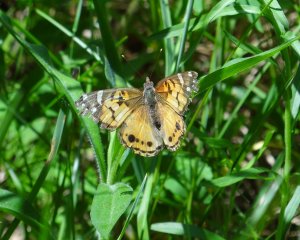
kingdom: Animalia
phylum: Arthropoda
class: Insecta
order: Lepidoptera
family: Nymphalidae
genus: Vanessa
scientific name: Vanessa virginiensis
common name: American Lady
